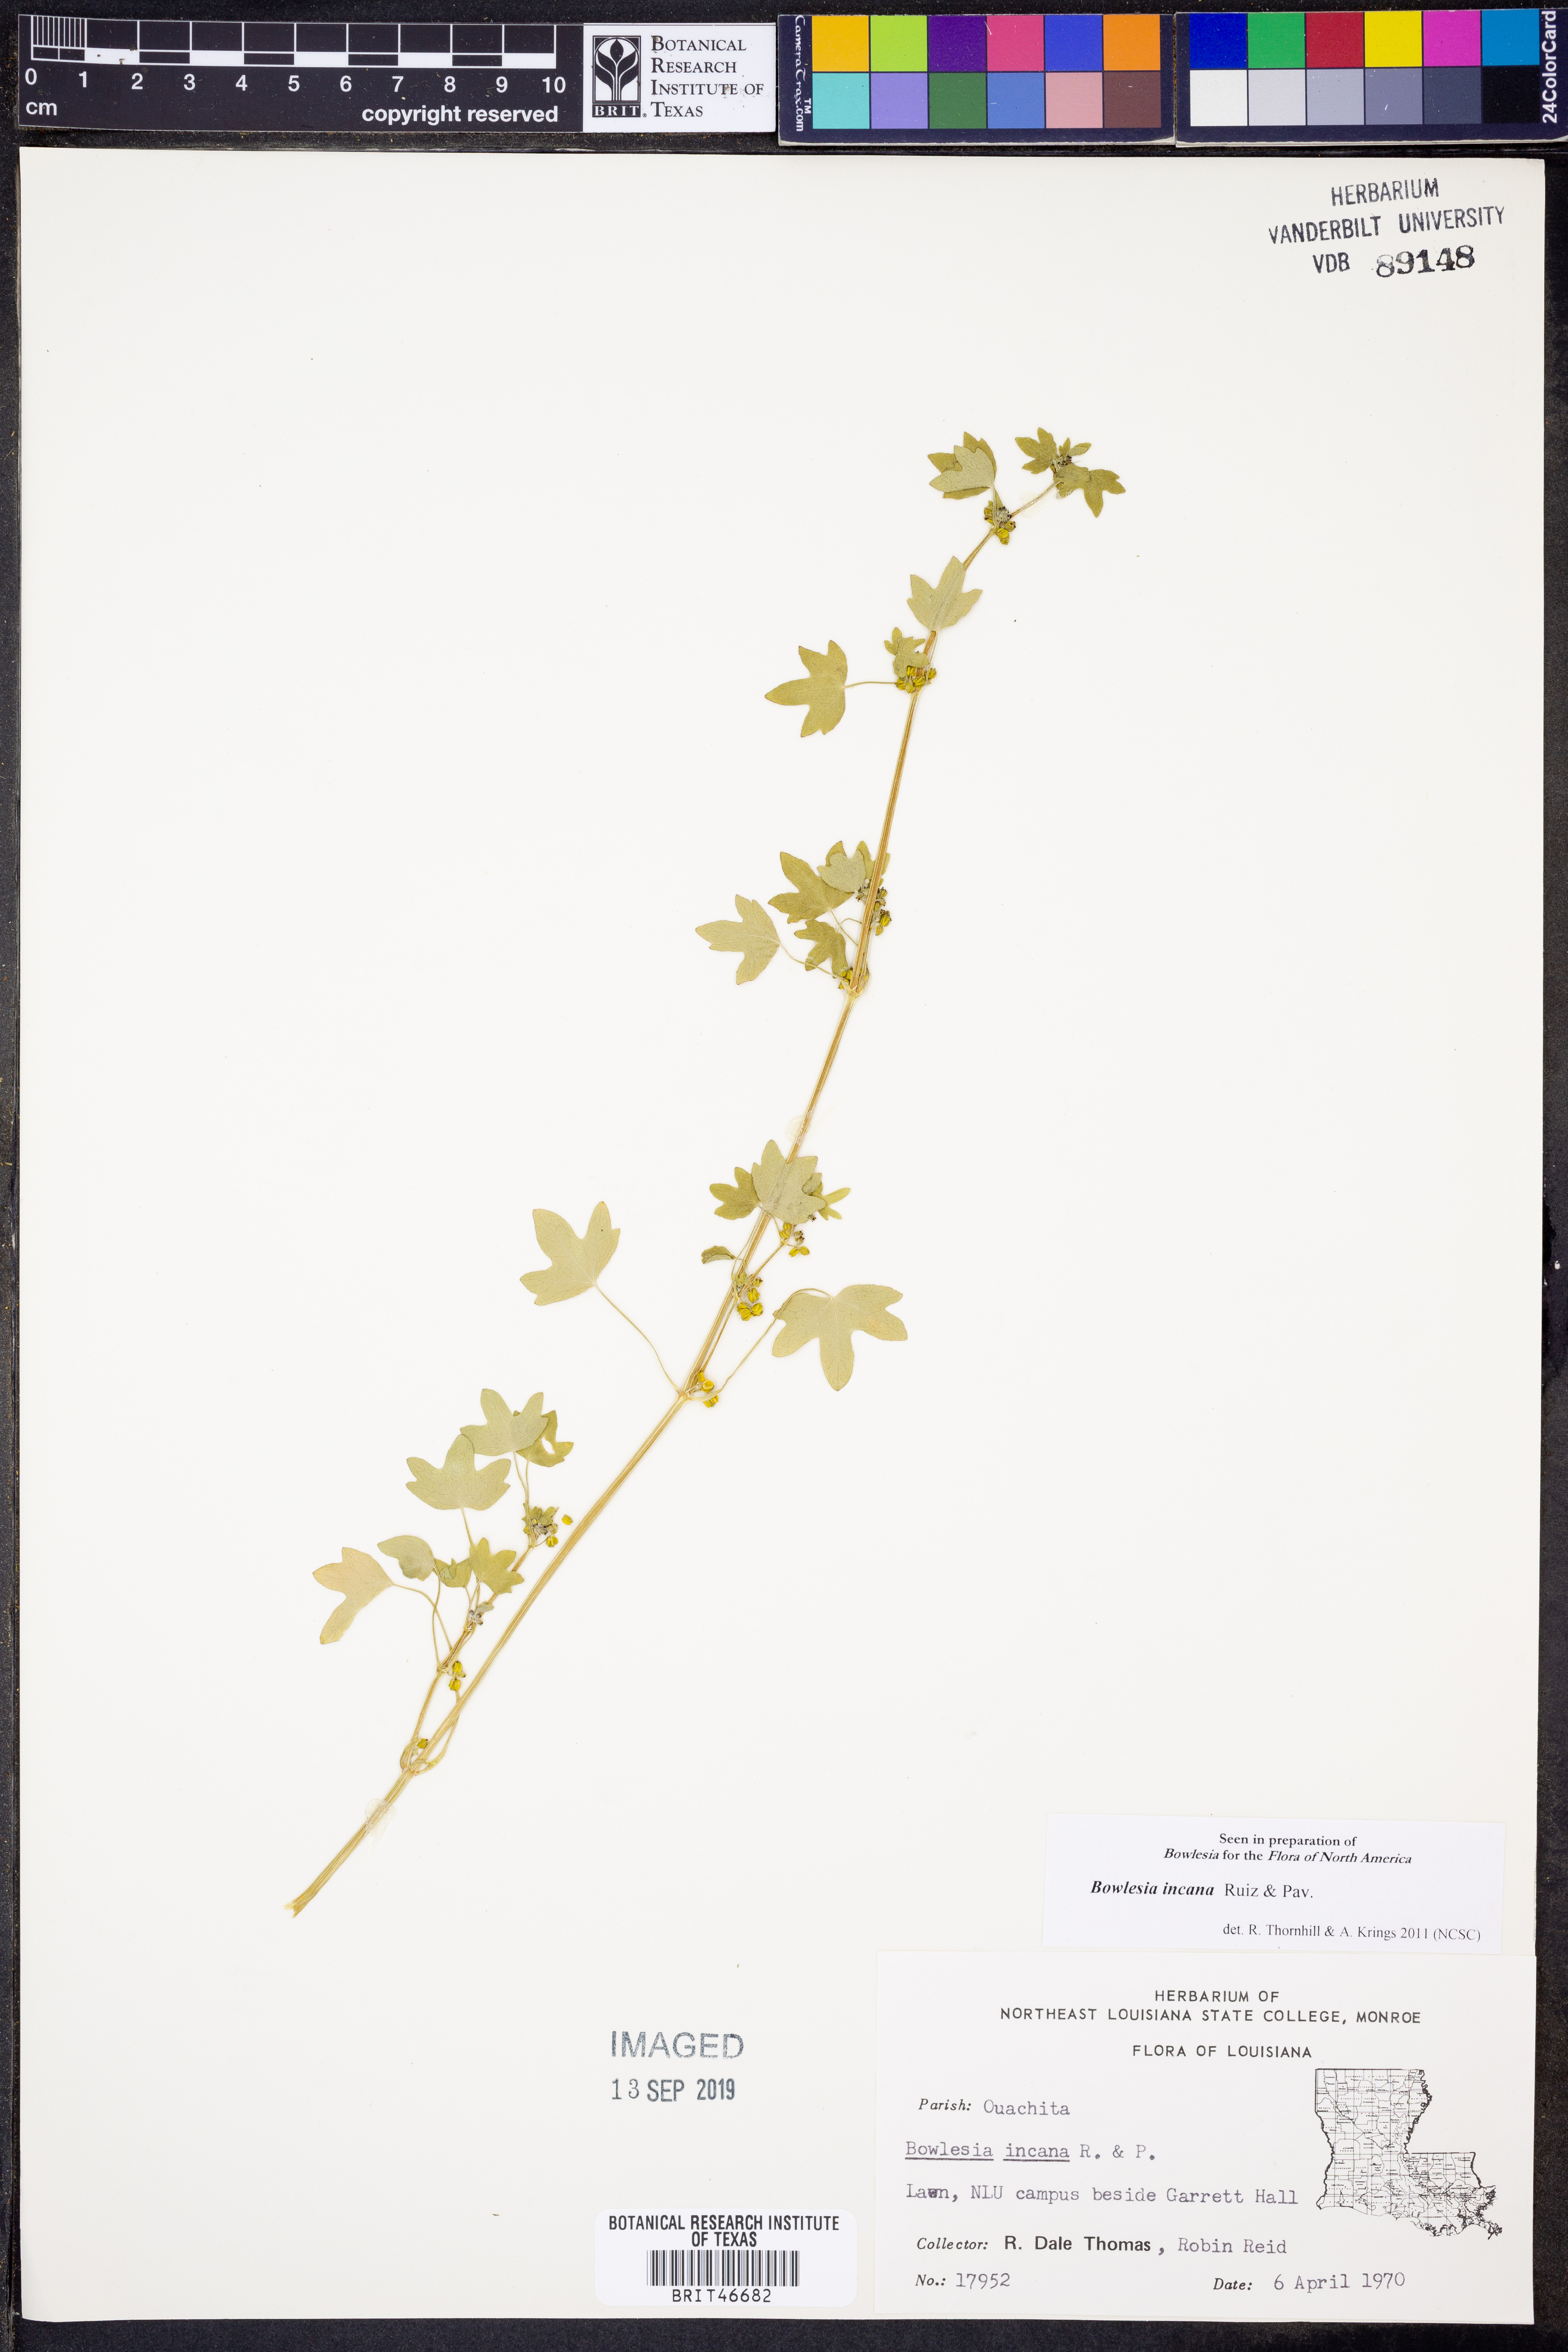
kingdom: Plantae
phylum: Tracheophyta
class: Magnoliopsida
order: Apiales
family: Apiaceae
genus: Bowlesia
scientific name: Bowlesia incana
